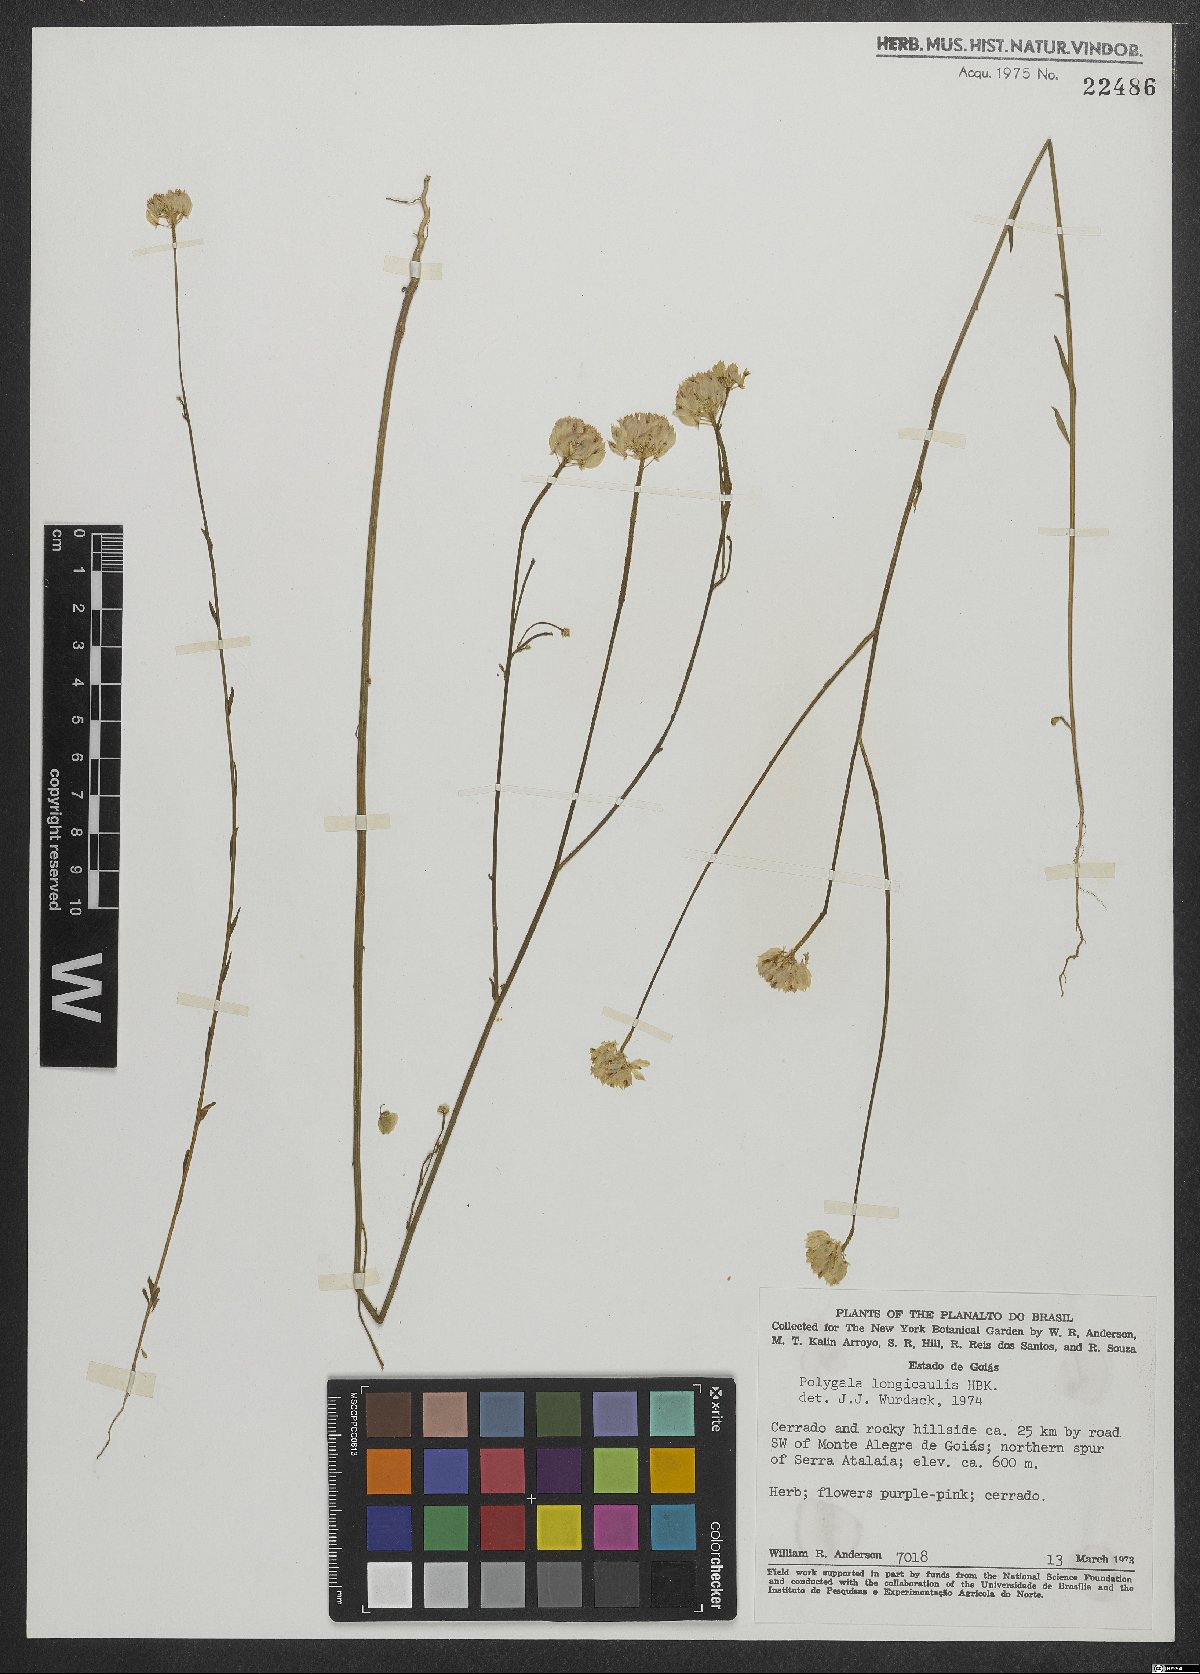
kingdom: Plantae
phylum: Tracheophyta
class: Magnoliopsida
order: Fabales
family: Polygalaceae
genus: Polygala
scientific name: Polygala longicaulis
